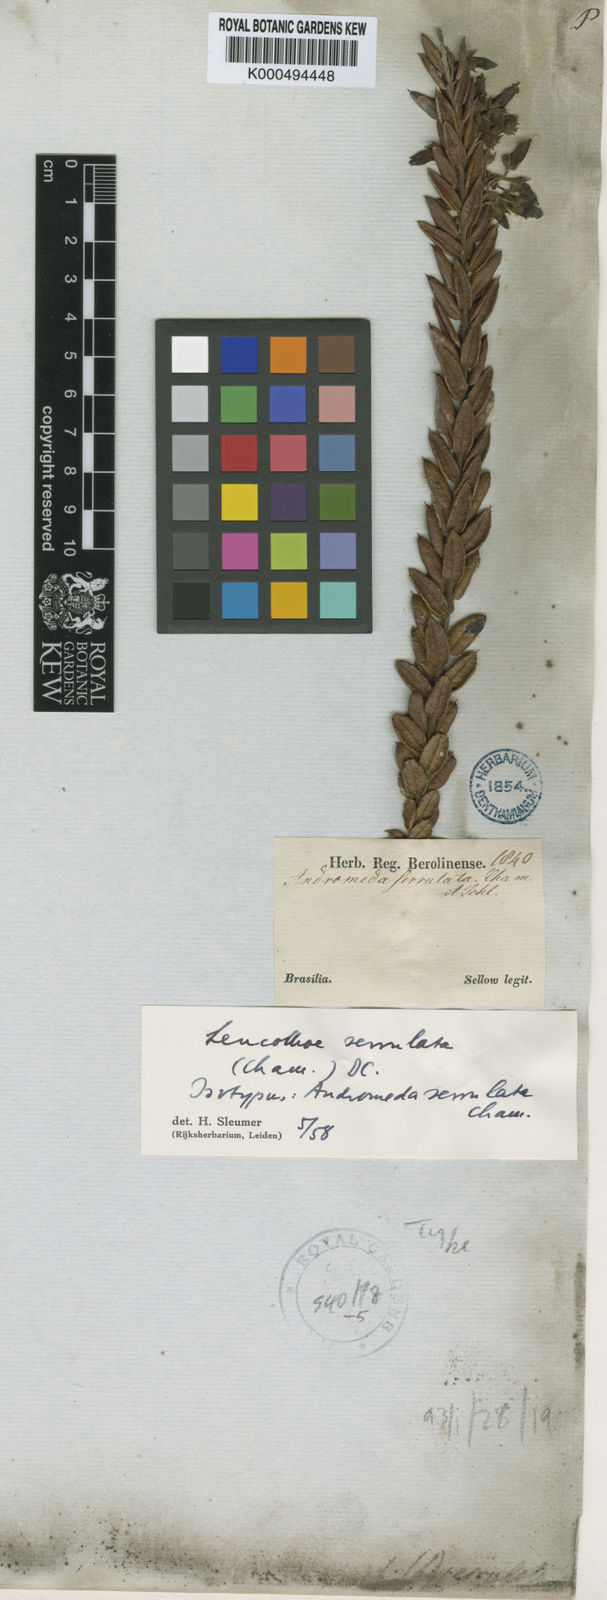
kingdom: Plantae
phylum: Tracheophyta
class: Magnoliopsida
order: Ericales
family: Ericaceae
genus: Agarista
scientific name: Agarista chlorantha
